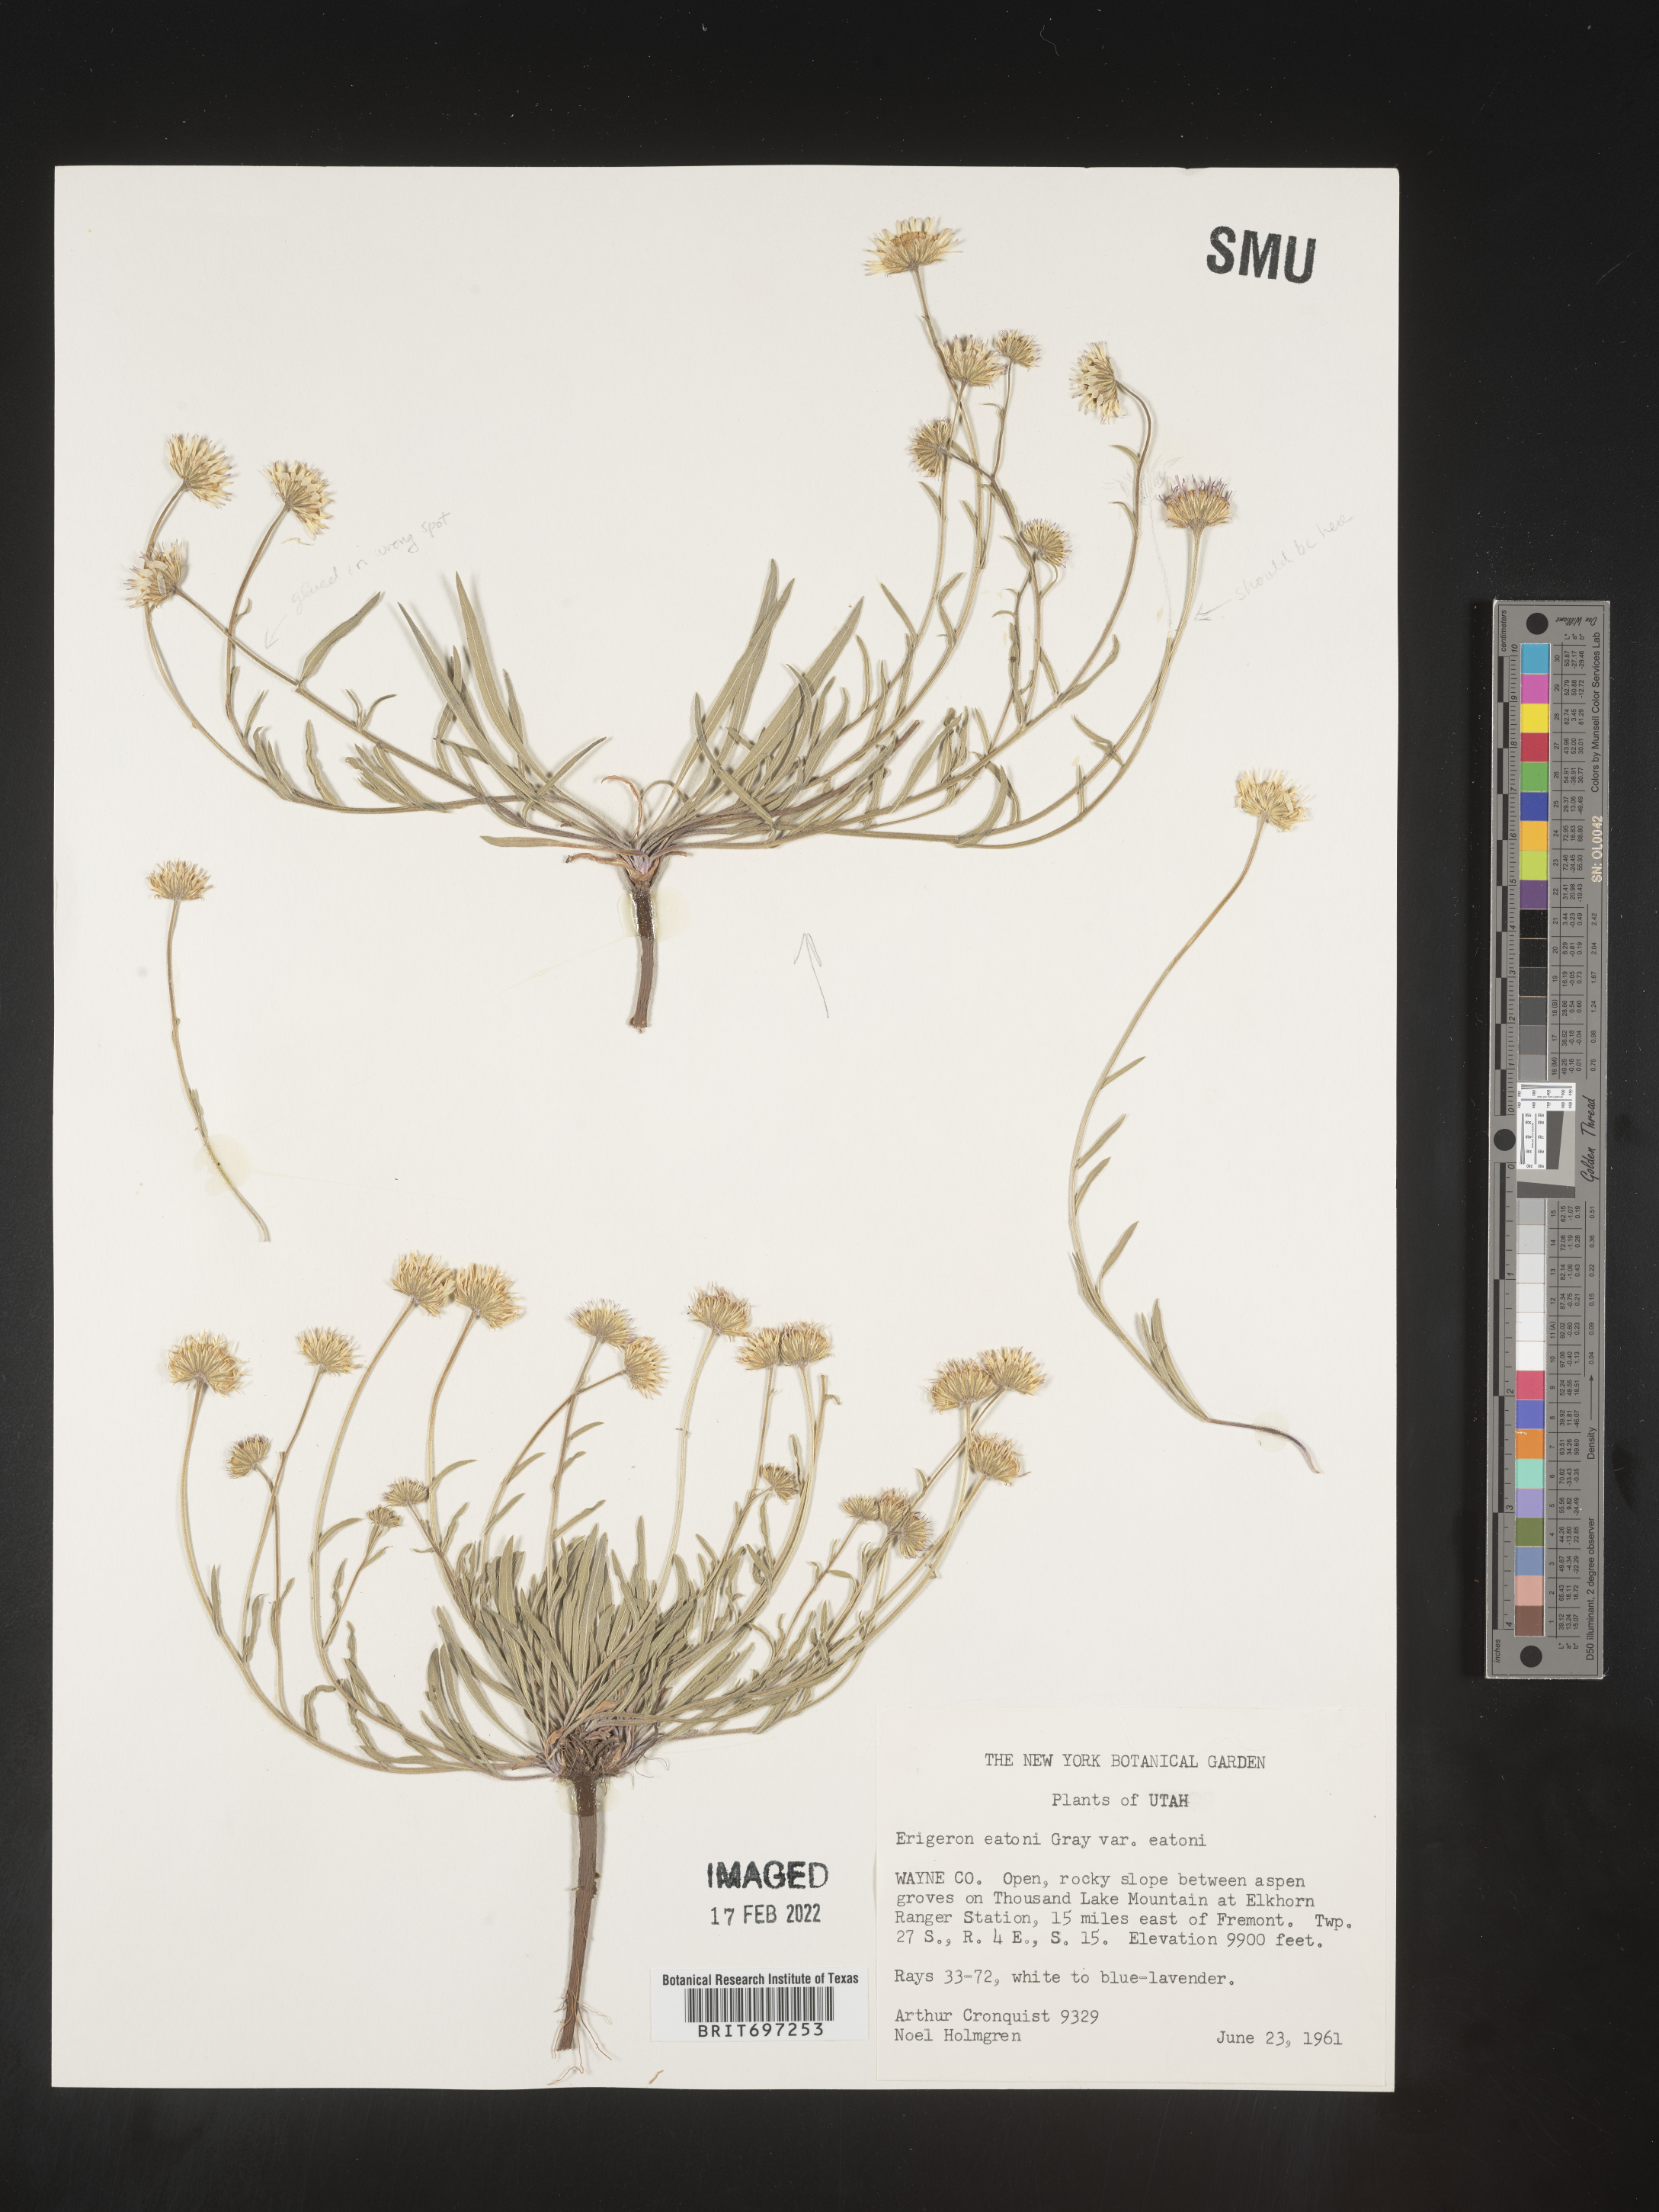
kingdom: Plantae
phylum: Tracheophyta
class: Magnoliopsida
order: Asterales
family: Asteraceae
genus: Erigeron
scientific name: Erigeron eatonii
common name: Eaton's fleabane
